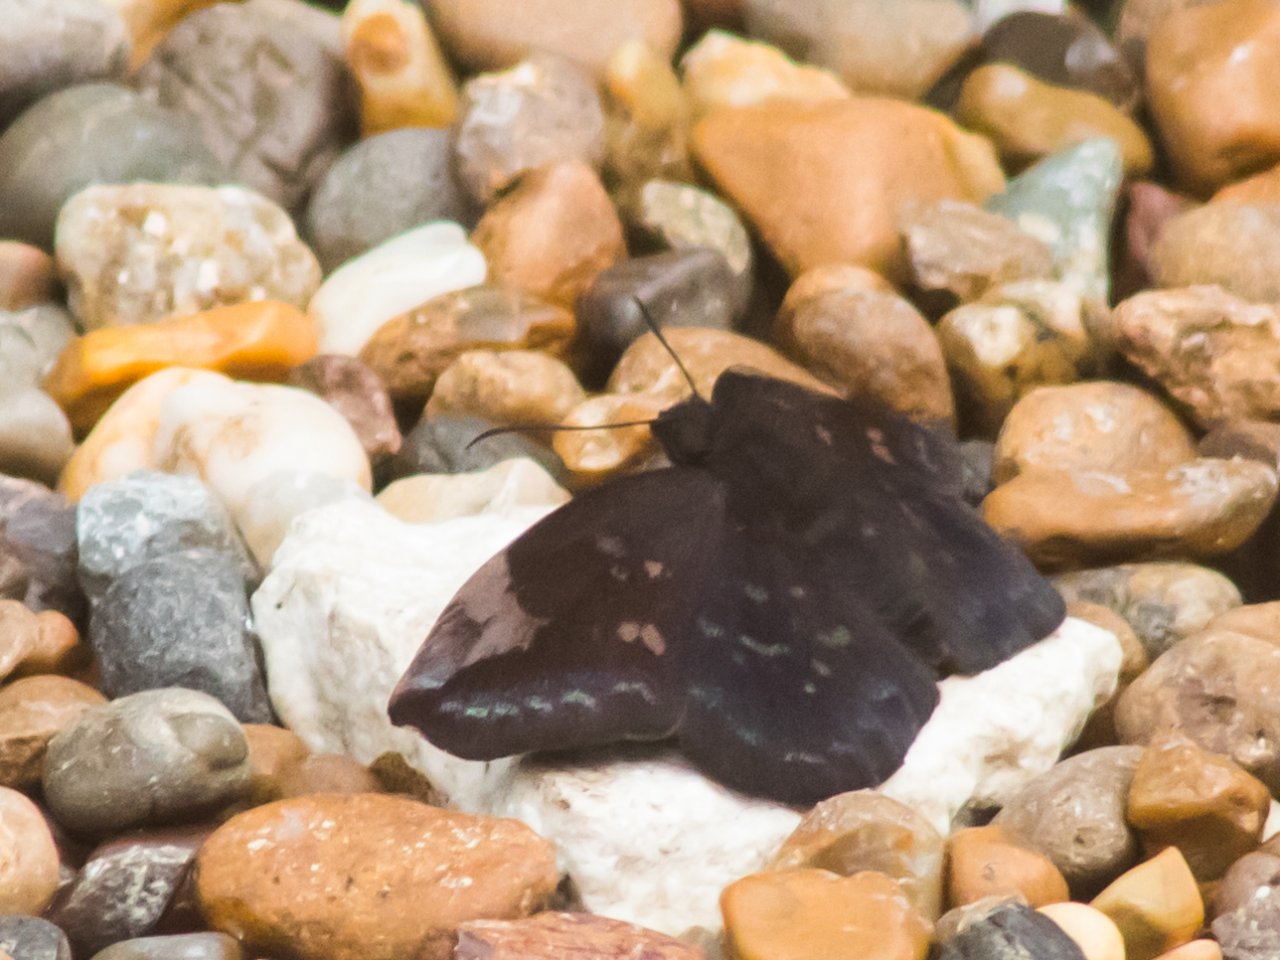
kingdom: Animalia
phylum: Arthropoda
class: Insecta
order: Lepidoptera
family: Hesperiidae
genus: Achlyodes
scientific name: Achlyodes thraso
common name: Sickle-winged Skipper
